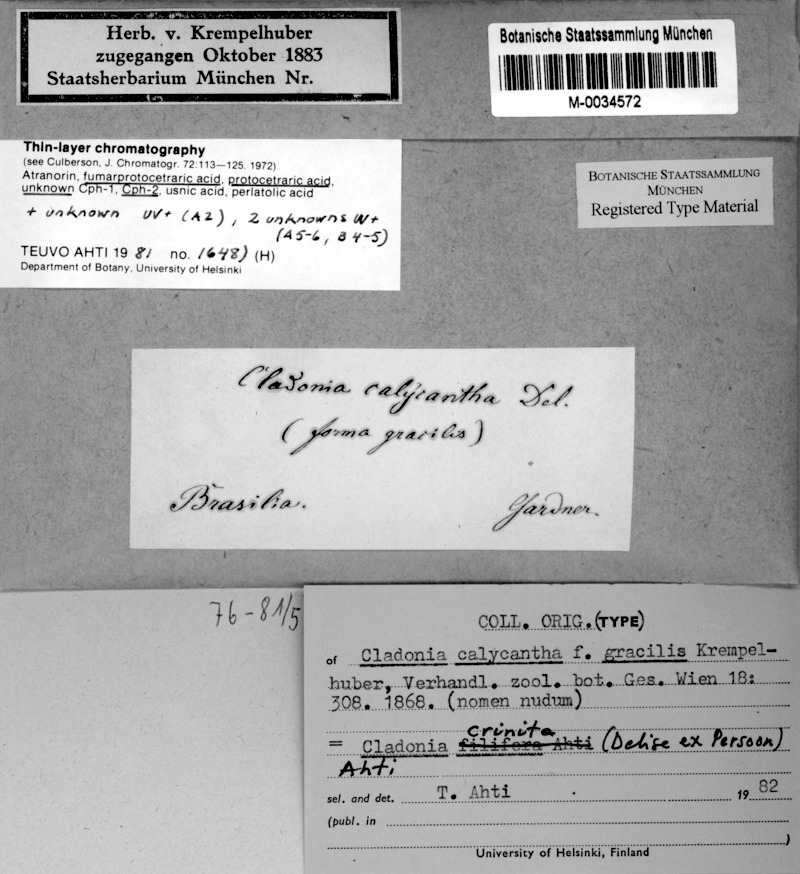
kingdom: Fungi
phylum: Ascomycota
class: Lecanoromycetes
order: Lecanorales
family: Cladoniaceae
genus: Cladonia
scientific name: Cladonia crinita
